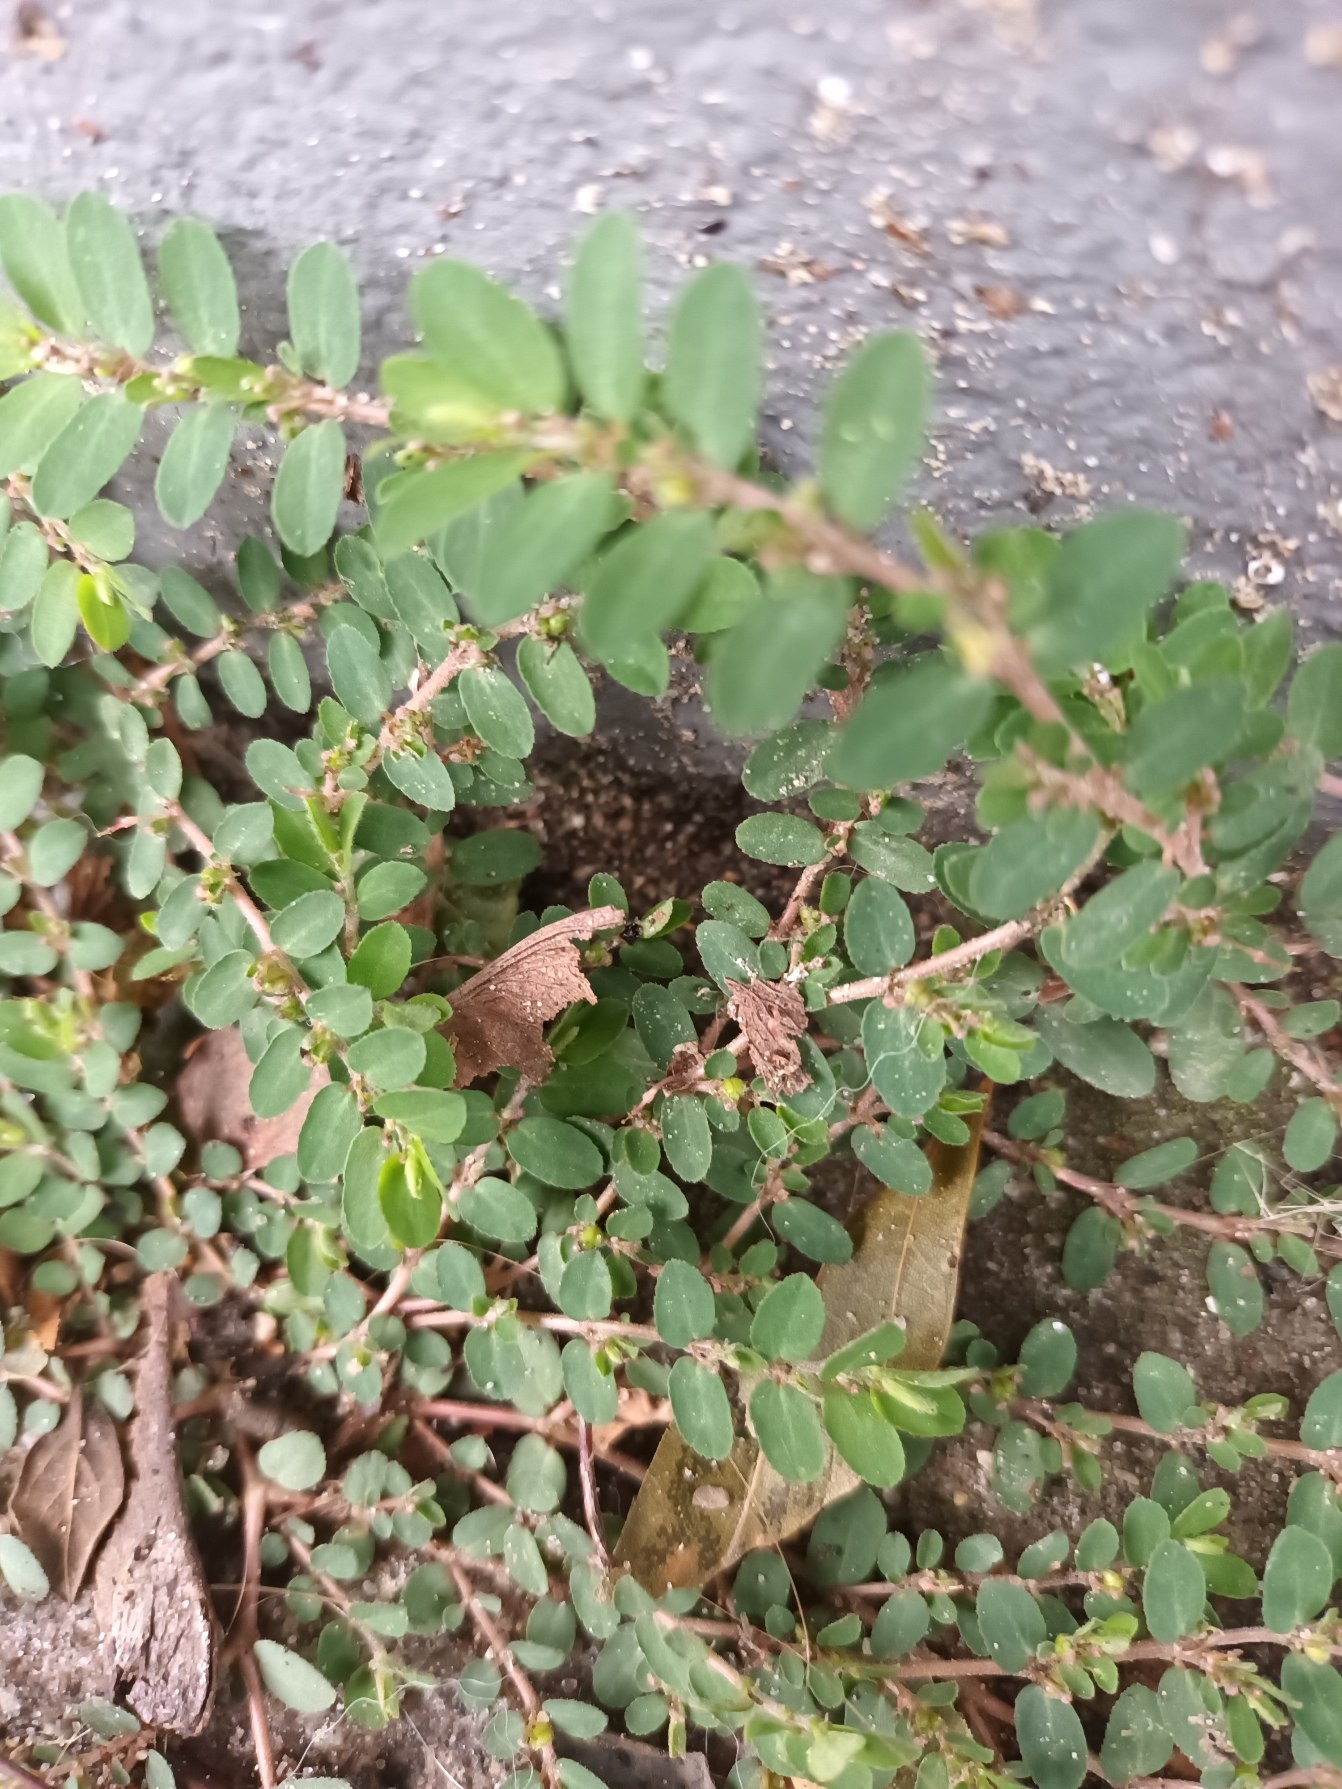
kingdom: Plantae
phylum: Tracheophyta
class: Magnoliopsida
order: Malpighiales
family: Euphorbiaceae
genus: Euphorbia
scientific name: Euphorbia prostrata
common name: Tiltrykt vortemælk
